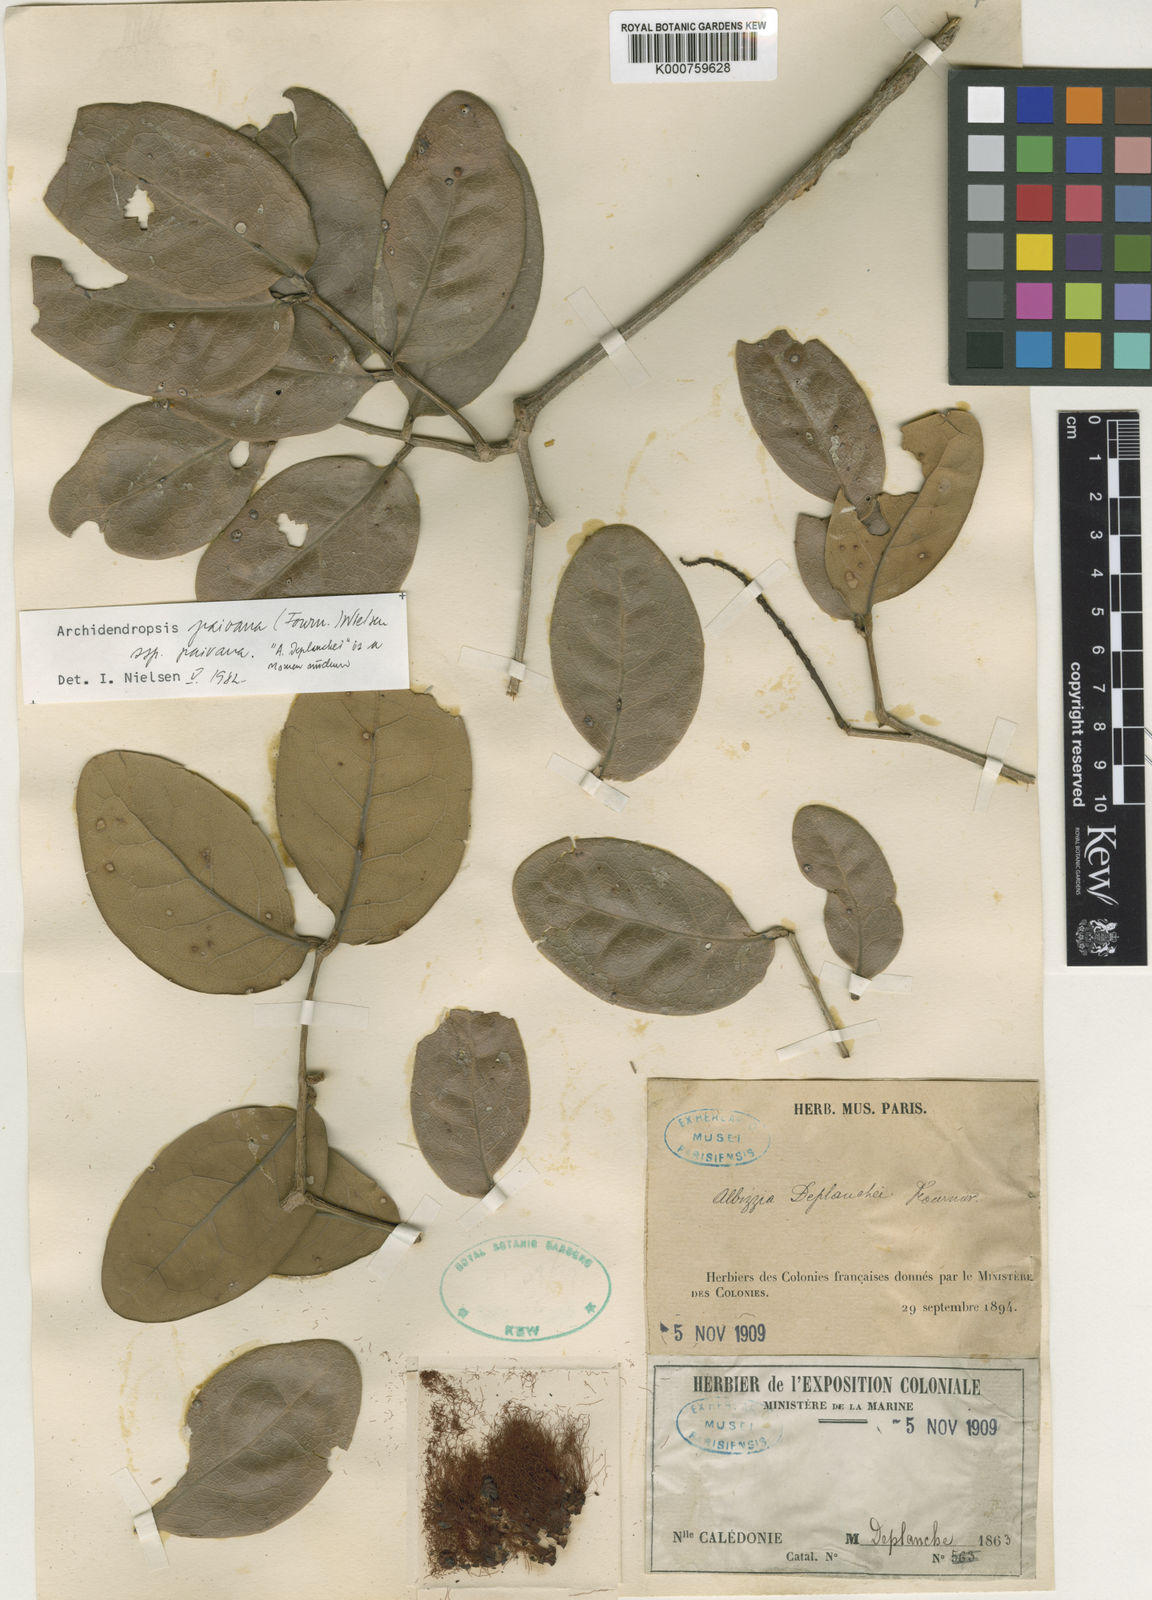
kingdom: Plantae
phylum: Tracheophyta
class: Magnoliopsida
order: Fabales
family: Fabaceae
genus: Archidendropsis
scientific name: Archidendropsis paivana
